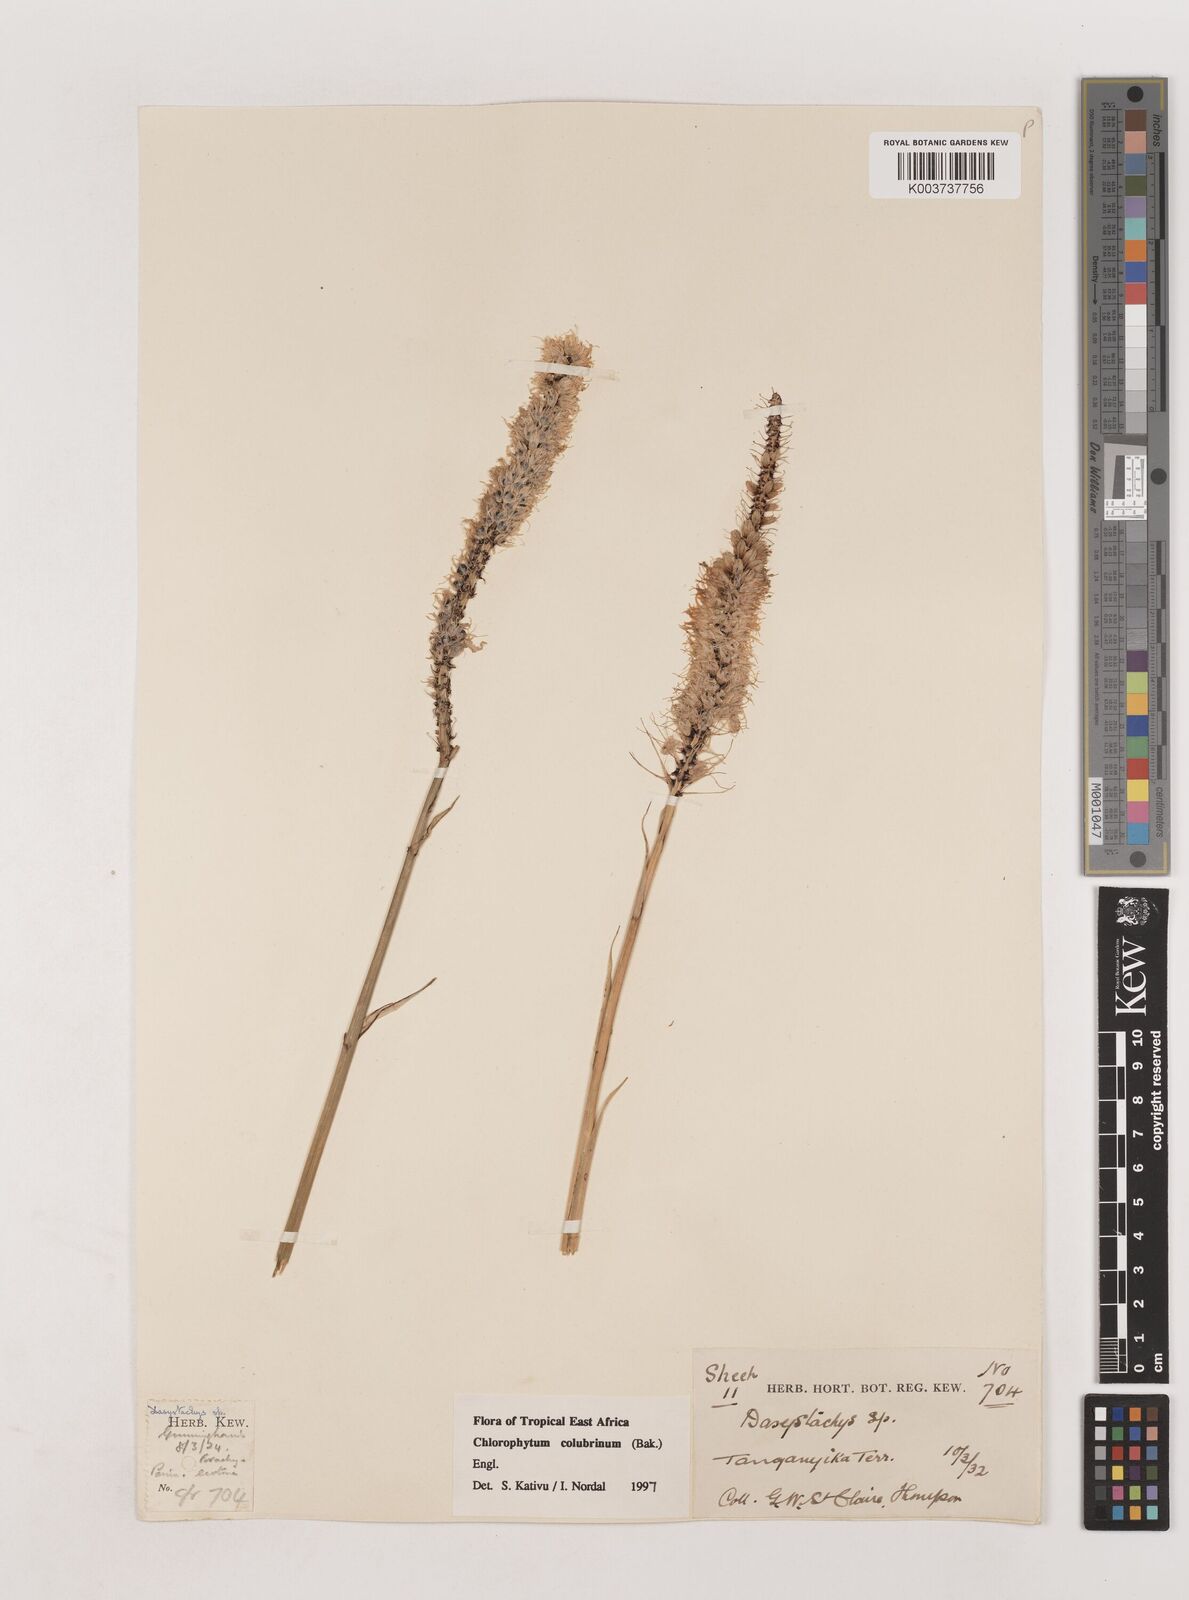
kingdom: Plantae
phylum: Tracheophyta
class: Liliopsida
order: Asparagales
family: Asparagaceae
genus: Chlorophytum
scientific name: Chlorophytum colubrinum
